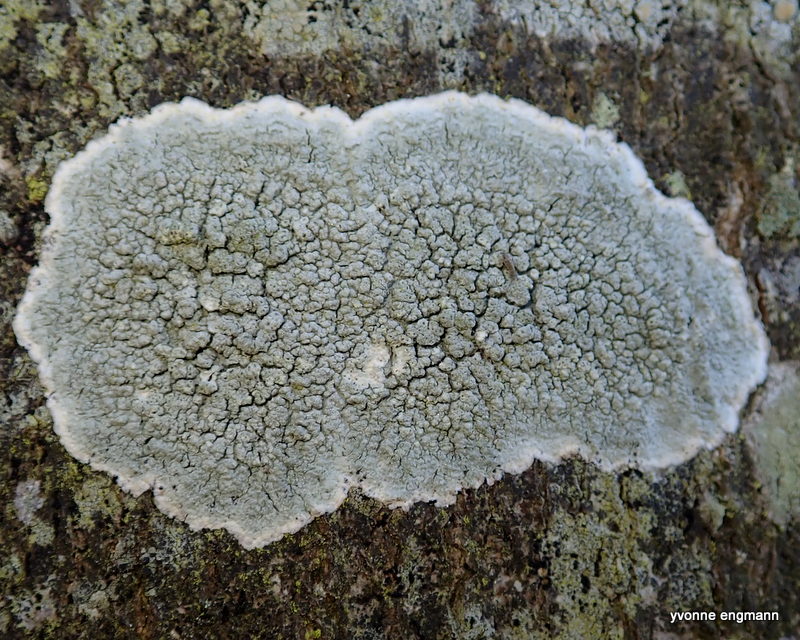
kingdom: Fungi
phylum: Ascomycota
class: Lecanoromycetes
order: Pertusariales
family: Pertusariaceae
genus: Pertusaria
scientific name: Pertusaria pertusa
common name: almindelig prikvortelav
